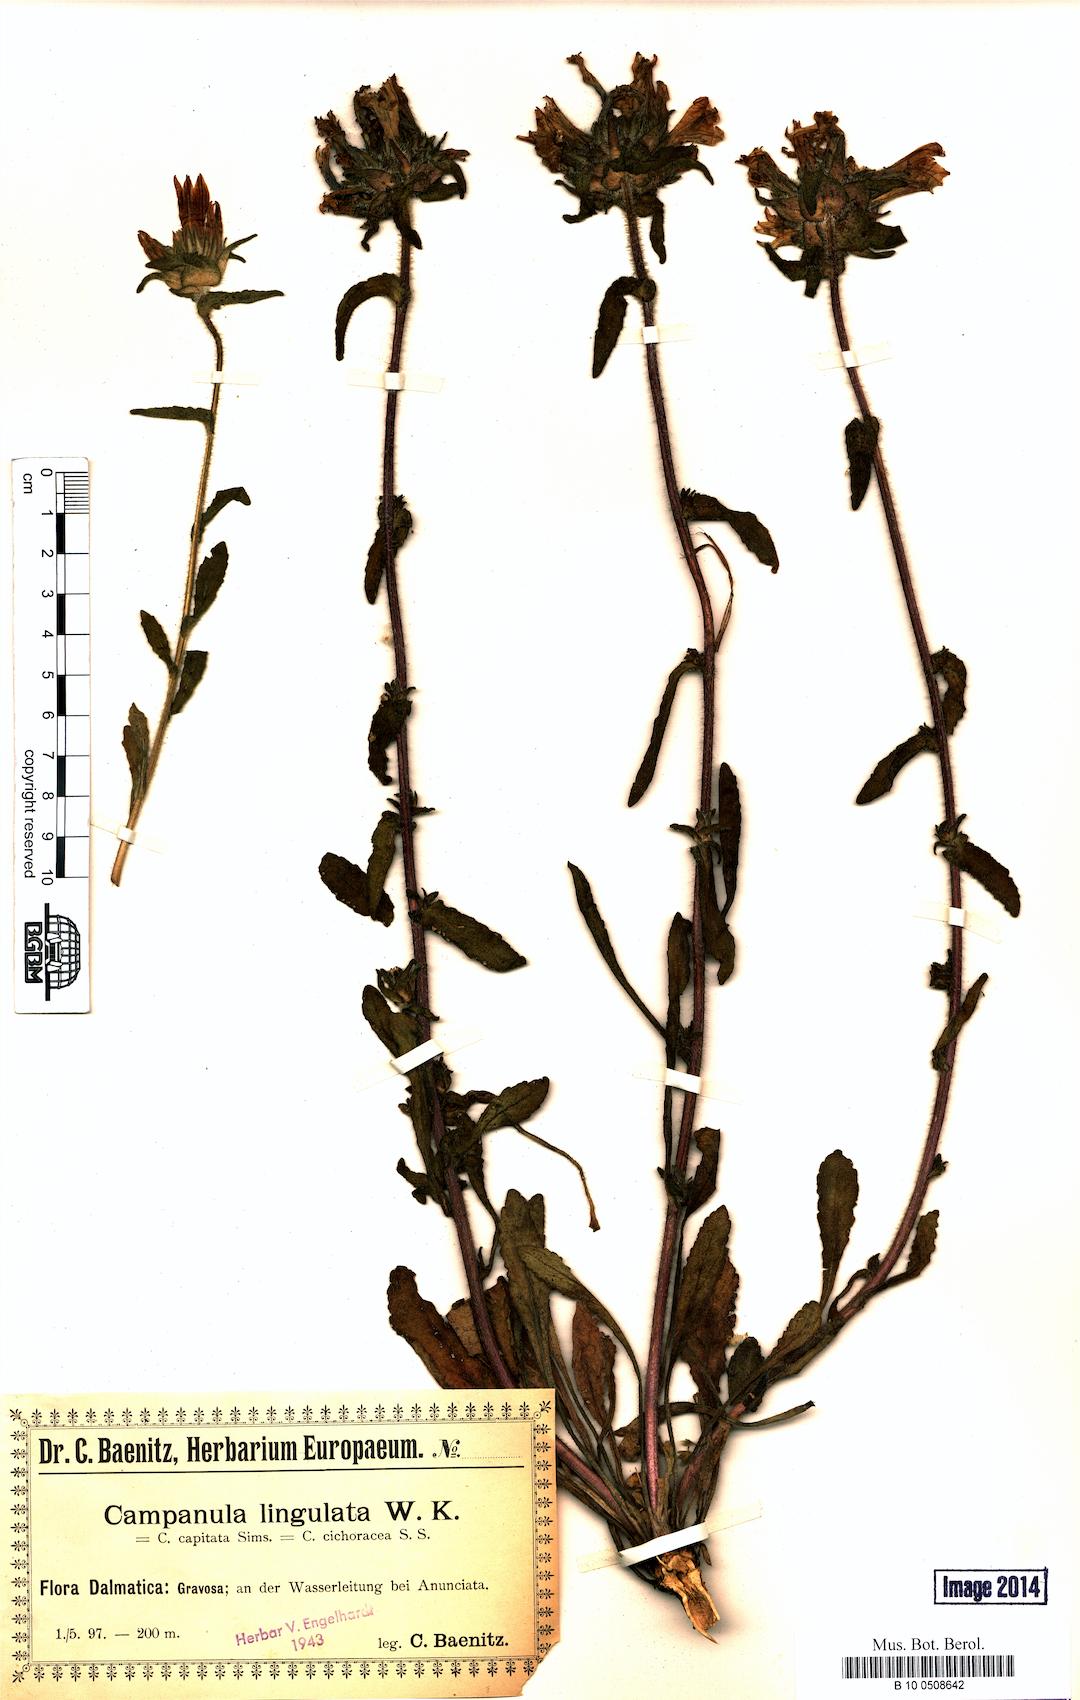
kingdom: Plantae
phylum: Tracheophyta
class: Magnoliopsida
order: Asterales
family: Campanulaceae
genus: Campanula
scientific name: Campanula lingulata
